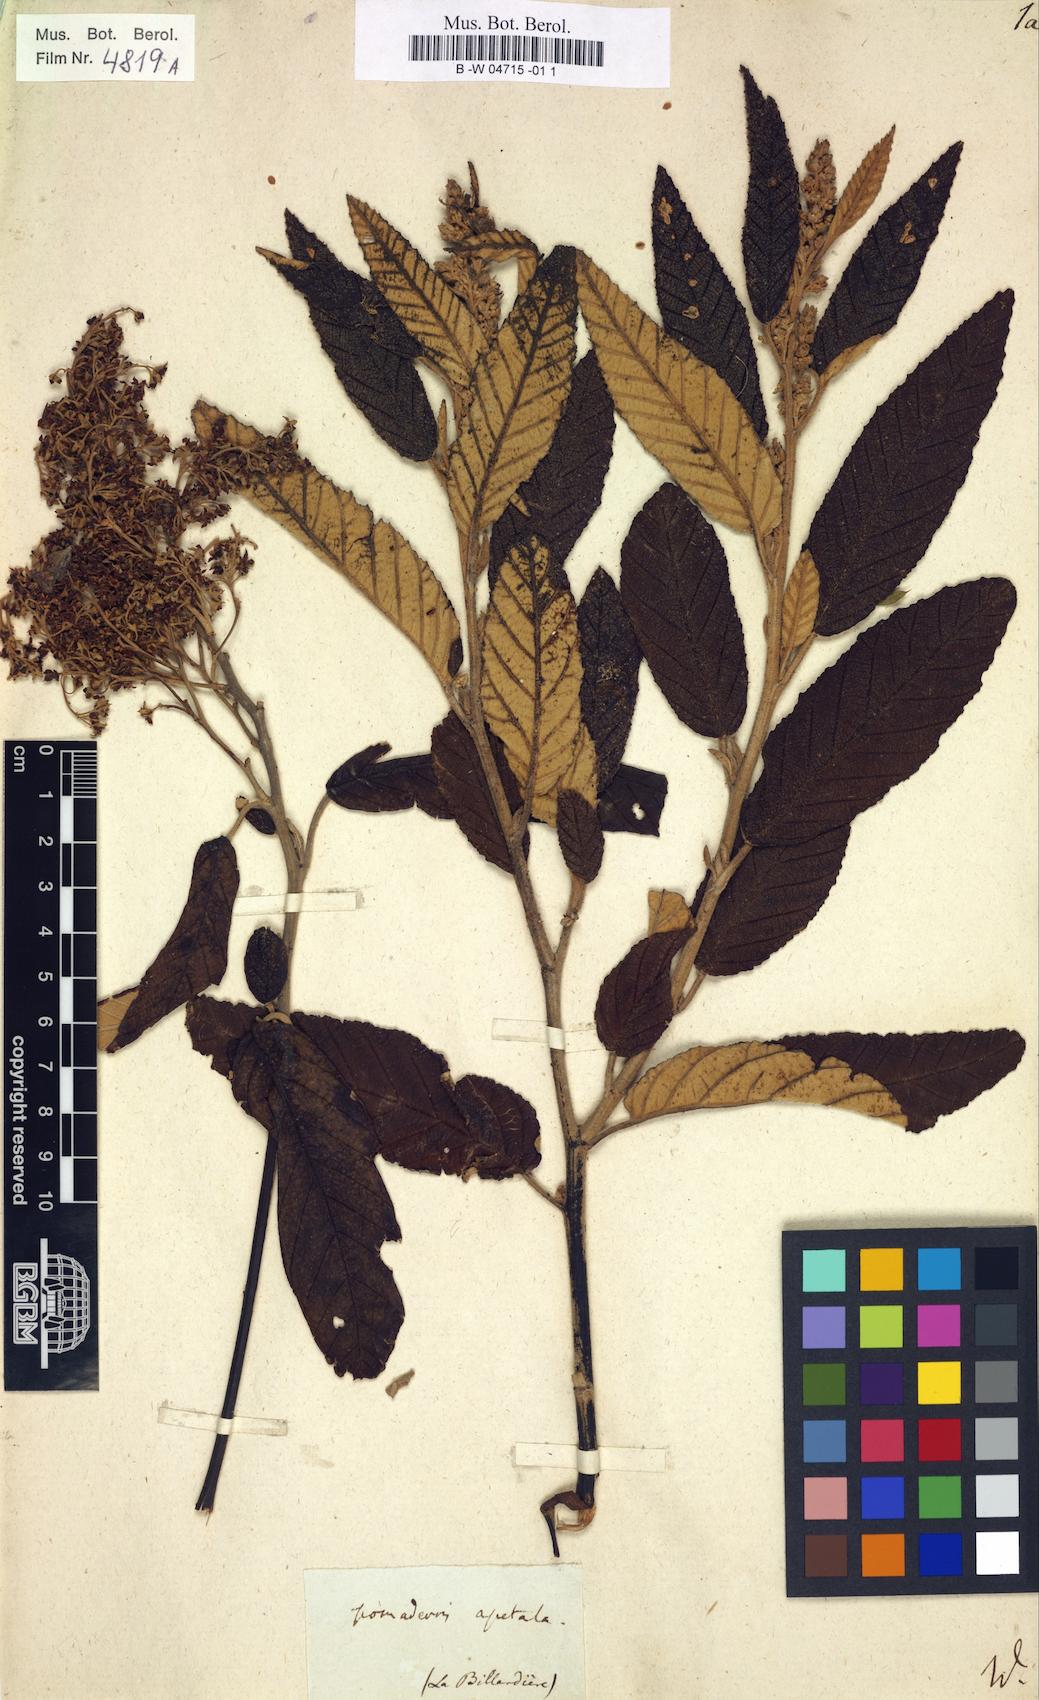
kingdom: Plantae
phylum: Tracheophyta
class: Magnoliopsida
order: Rosales
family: Rhamnaceae
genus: Pomaderris
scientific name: Pomaderris apetala
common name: Hazel pomaderris
